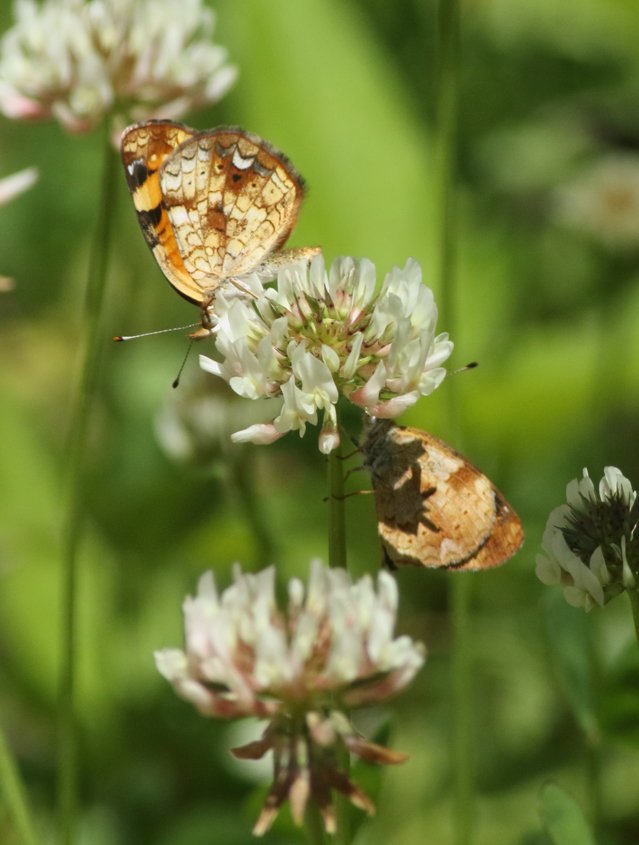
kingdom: Animalia
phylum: Arthropoda
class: Insecta
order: Lepidoptera
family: Nymphalidae
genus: Phyciodes
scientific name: Phyciodes tharos
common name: Pearl Crescent
